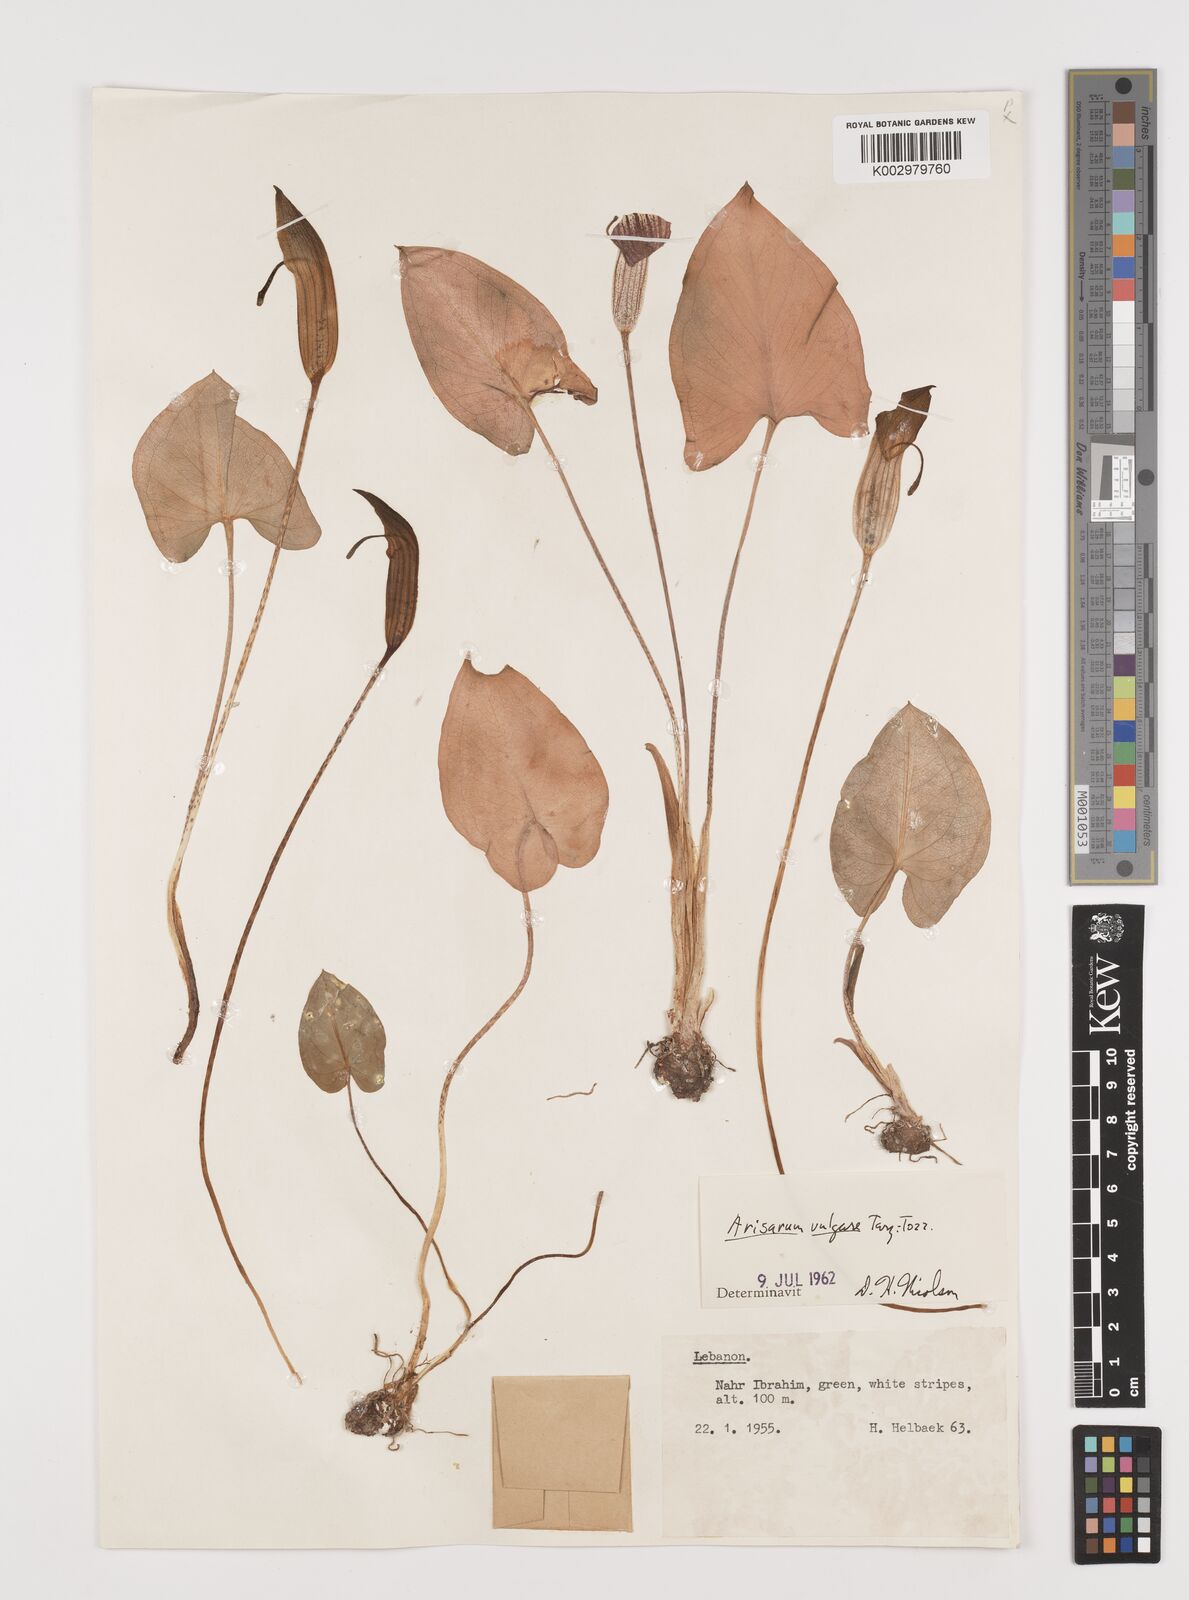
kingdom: Plantae
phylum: Tracheophyta
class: Liliopsida
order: Alismatales
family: Araceae
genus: Arisarum
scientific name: Arisarum vulgare
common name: Common arisarum
